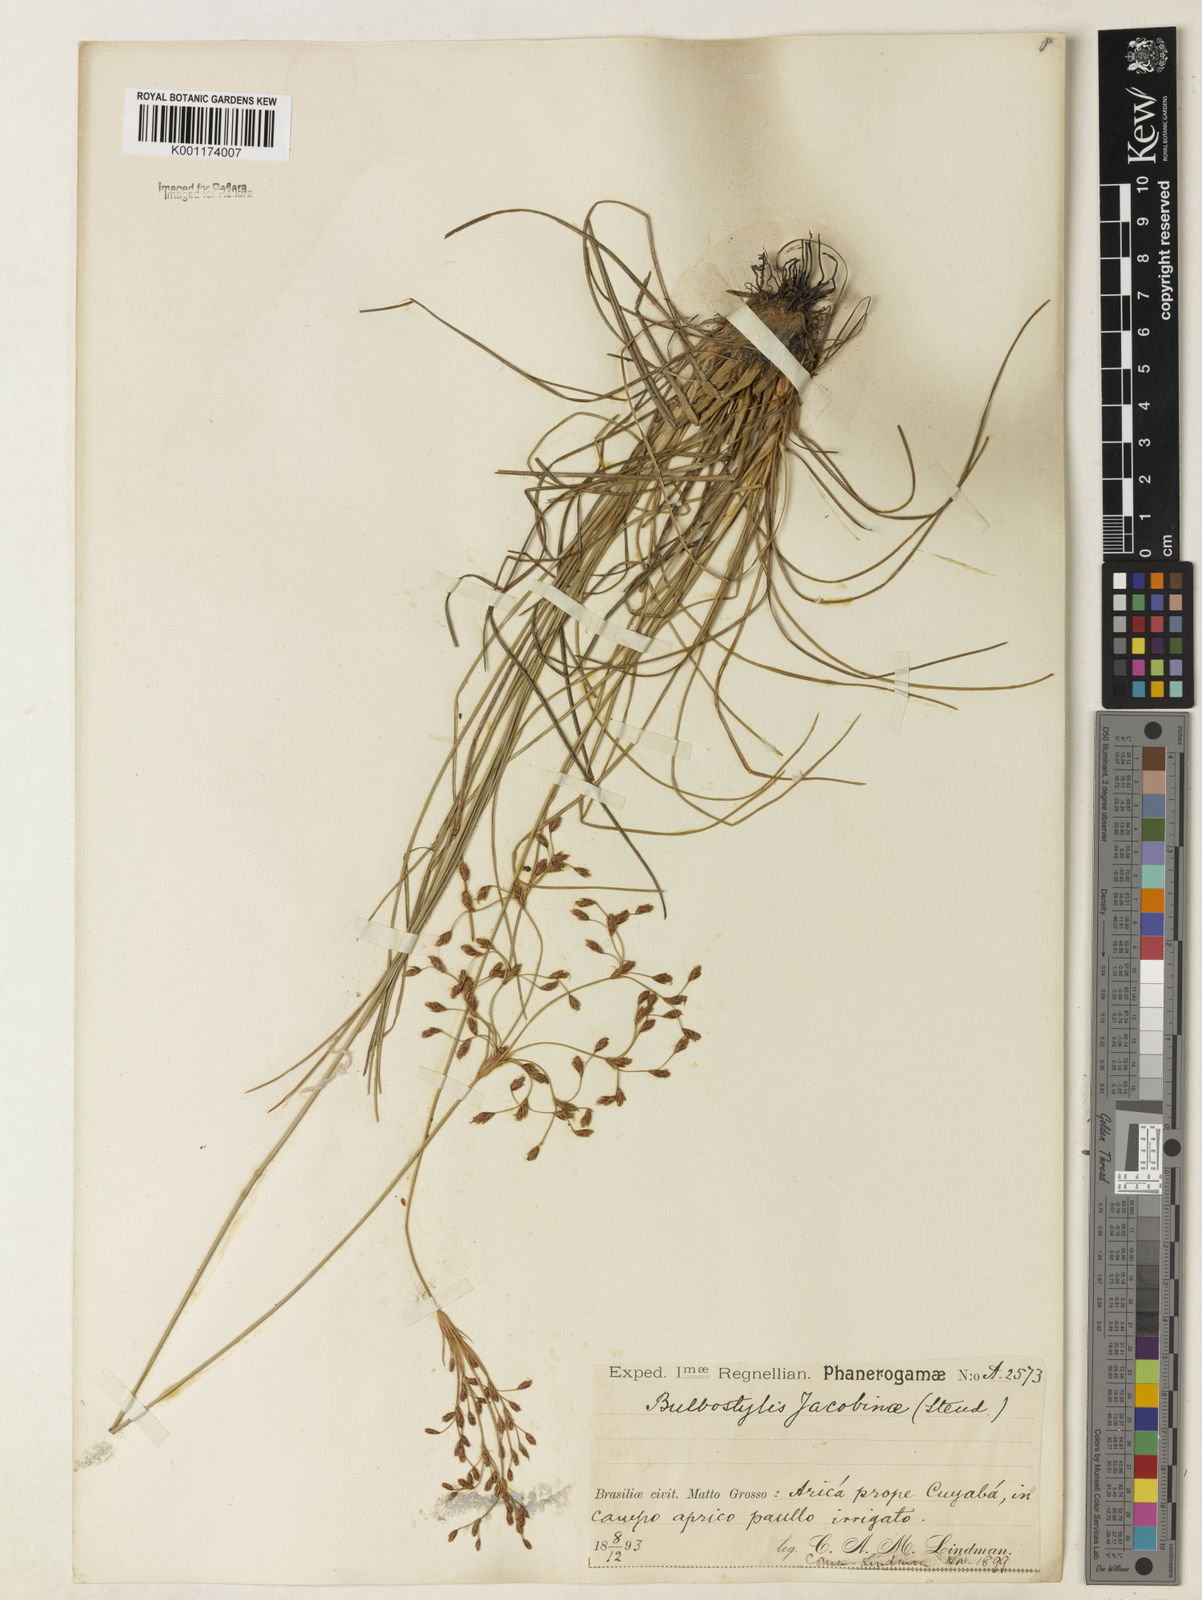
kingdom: Plantae
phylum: Tracheophyta
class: Liliopsida
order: Poales
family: Cyperaceae
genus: Bulbostylis
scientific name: Bulbostylis jacobinae
